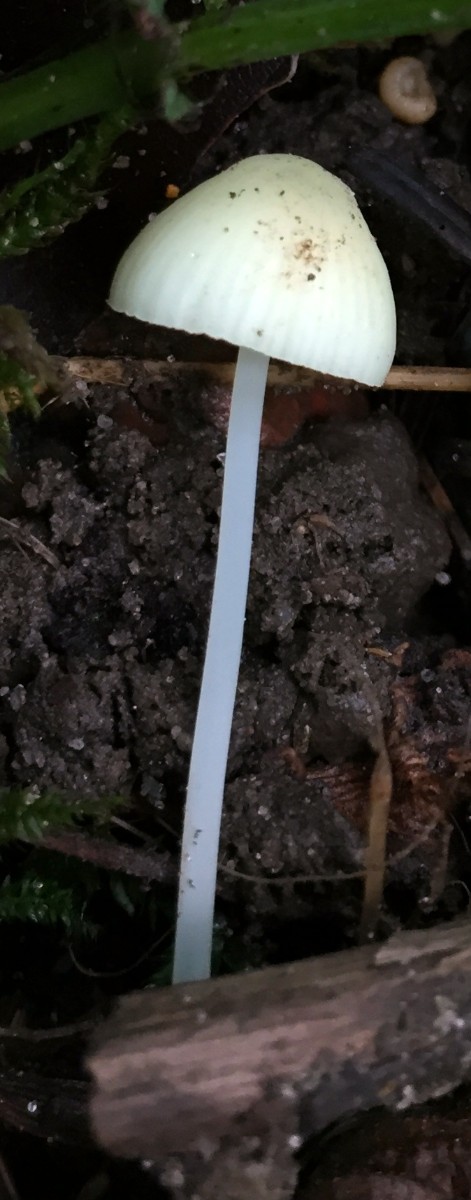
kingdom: Fungi
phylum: Basidiomycota
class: Agaricomycetes
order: Agaricales
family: Mycenaceae
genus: Mycena
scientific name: Mycena xantholeuca
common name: cremehvid huesvamp
